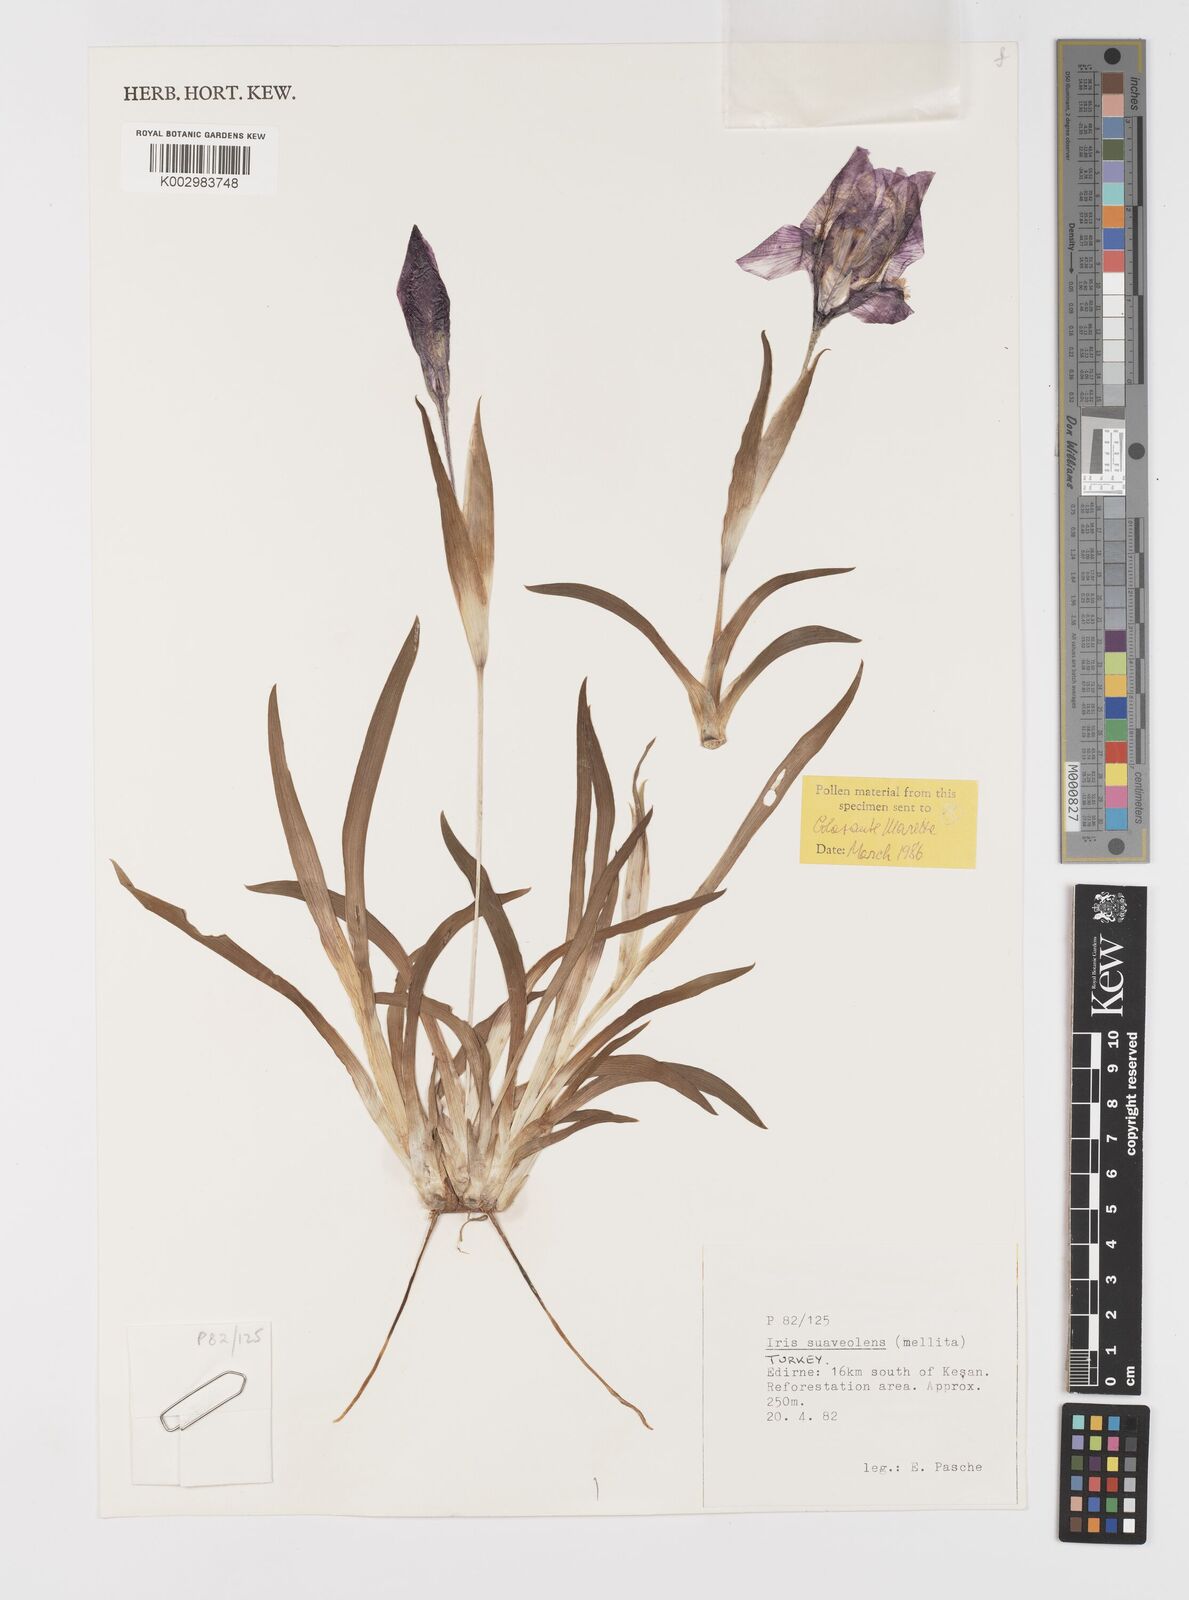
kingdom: Plantae
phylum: Tracheophyta
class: Liliopsida
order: Asparagales
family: Iridaceae
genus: Iris
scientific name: Iris suaveolens
